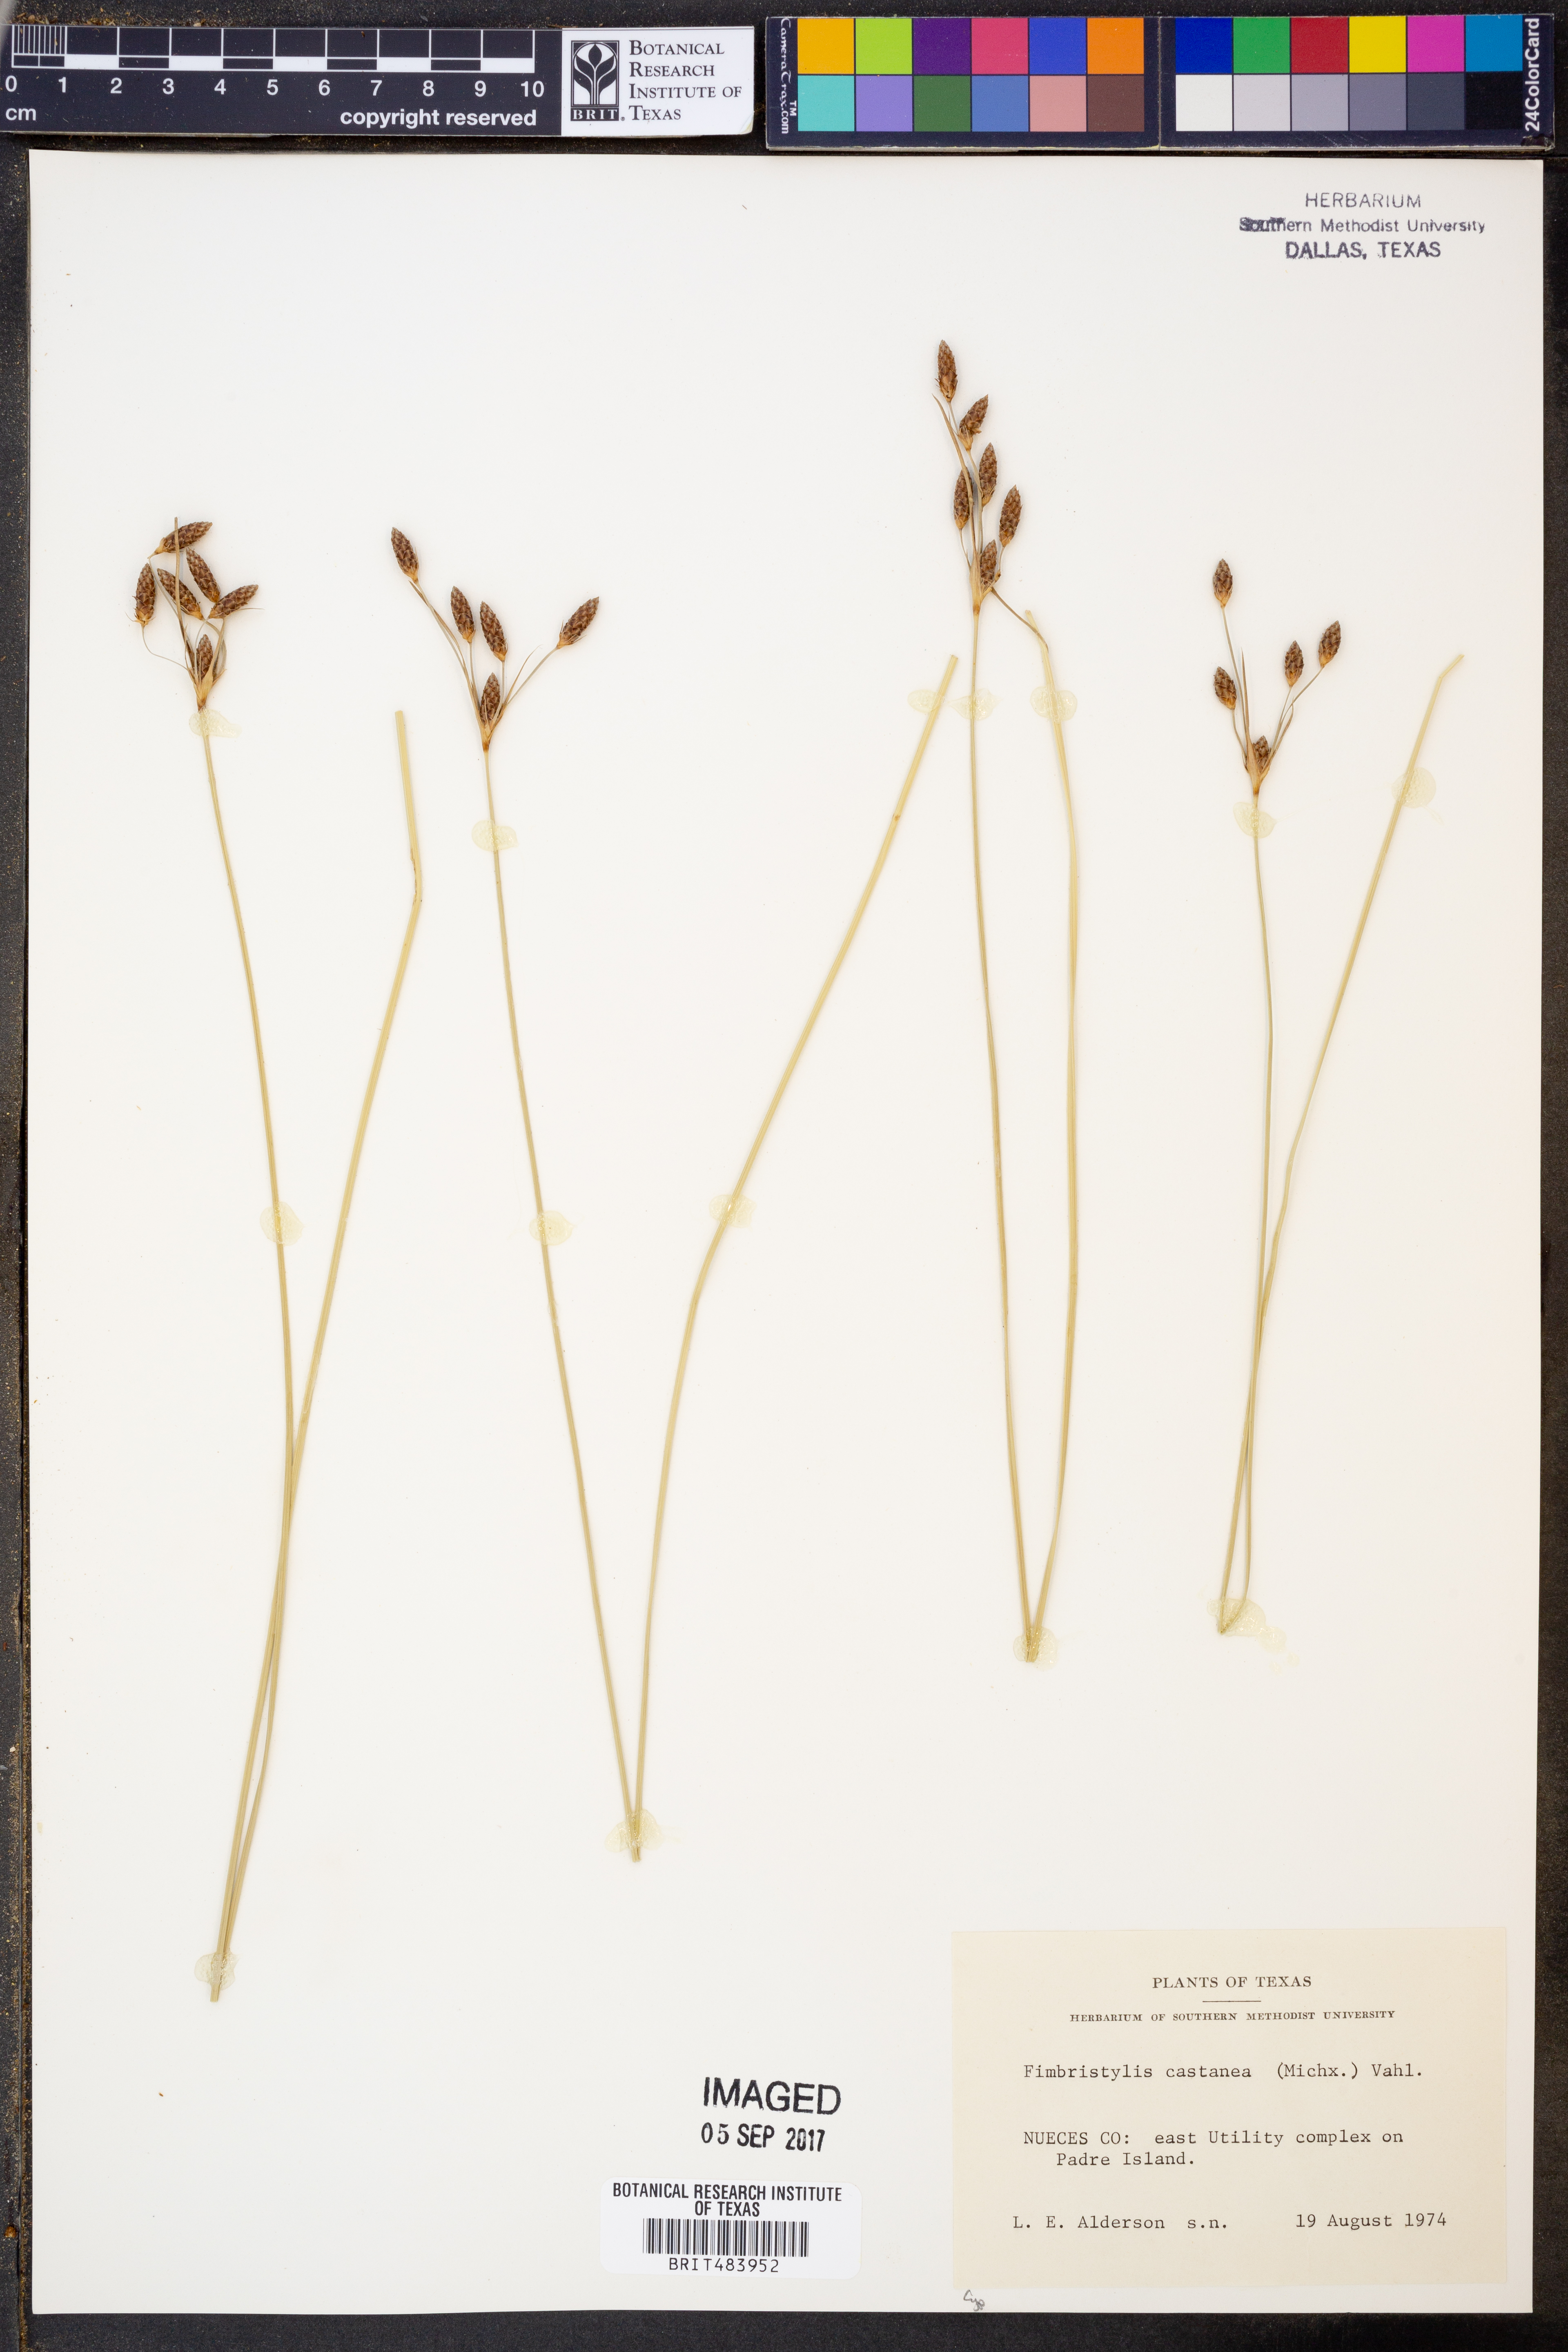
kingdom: Plantae
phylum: Tracheophyta
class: Liliopsida
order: Poales
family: Cyperaceae
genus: Fimbristylis
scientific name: Fimbristylis spadicea
